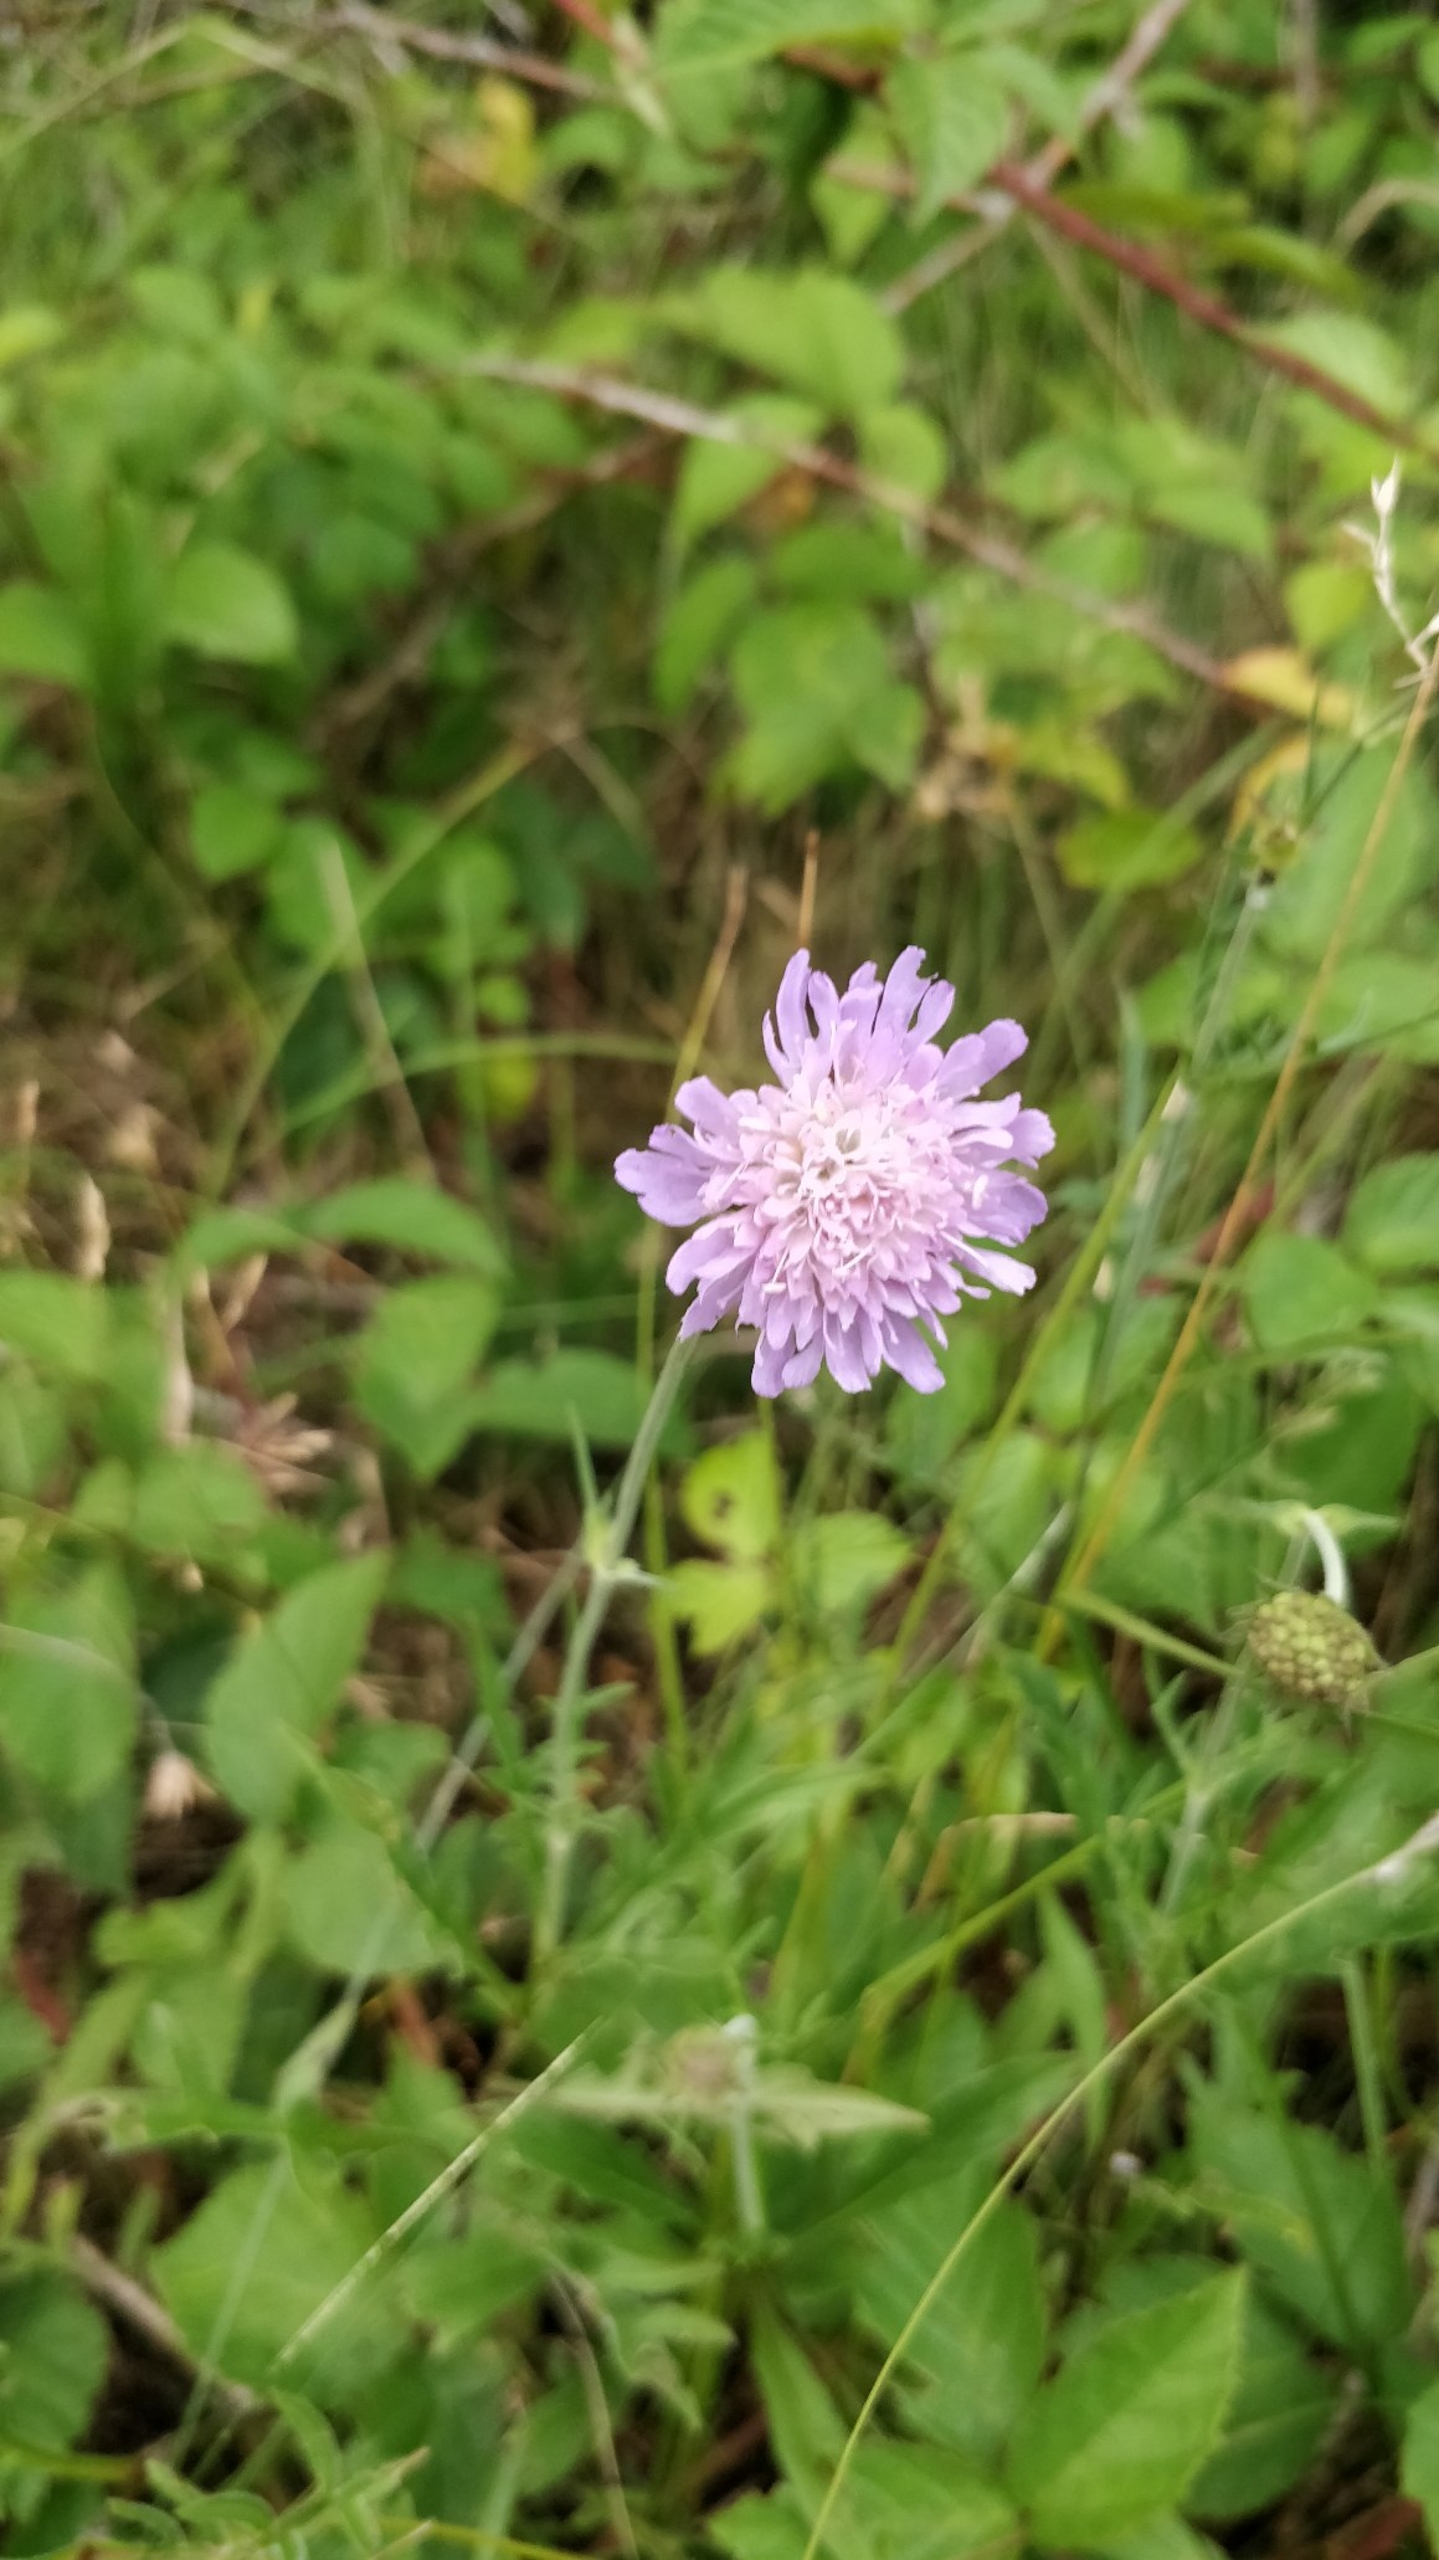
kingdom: Plantae
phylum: Tracheophyta
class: Magnoliopsida
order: Dipsacales
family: Caprifoliaceae
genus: Knautia
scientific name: Knautia arvensis
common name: Blåhat
